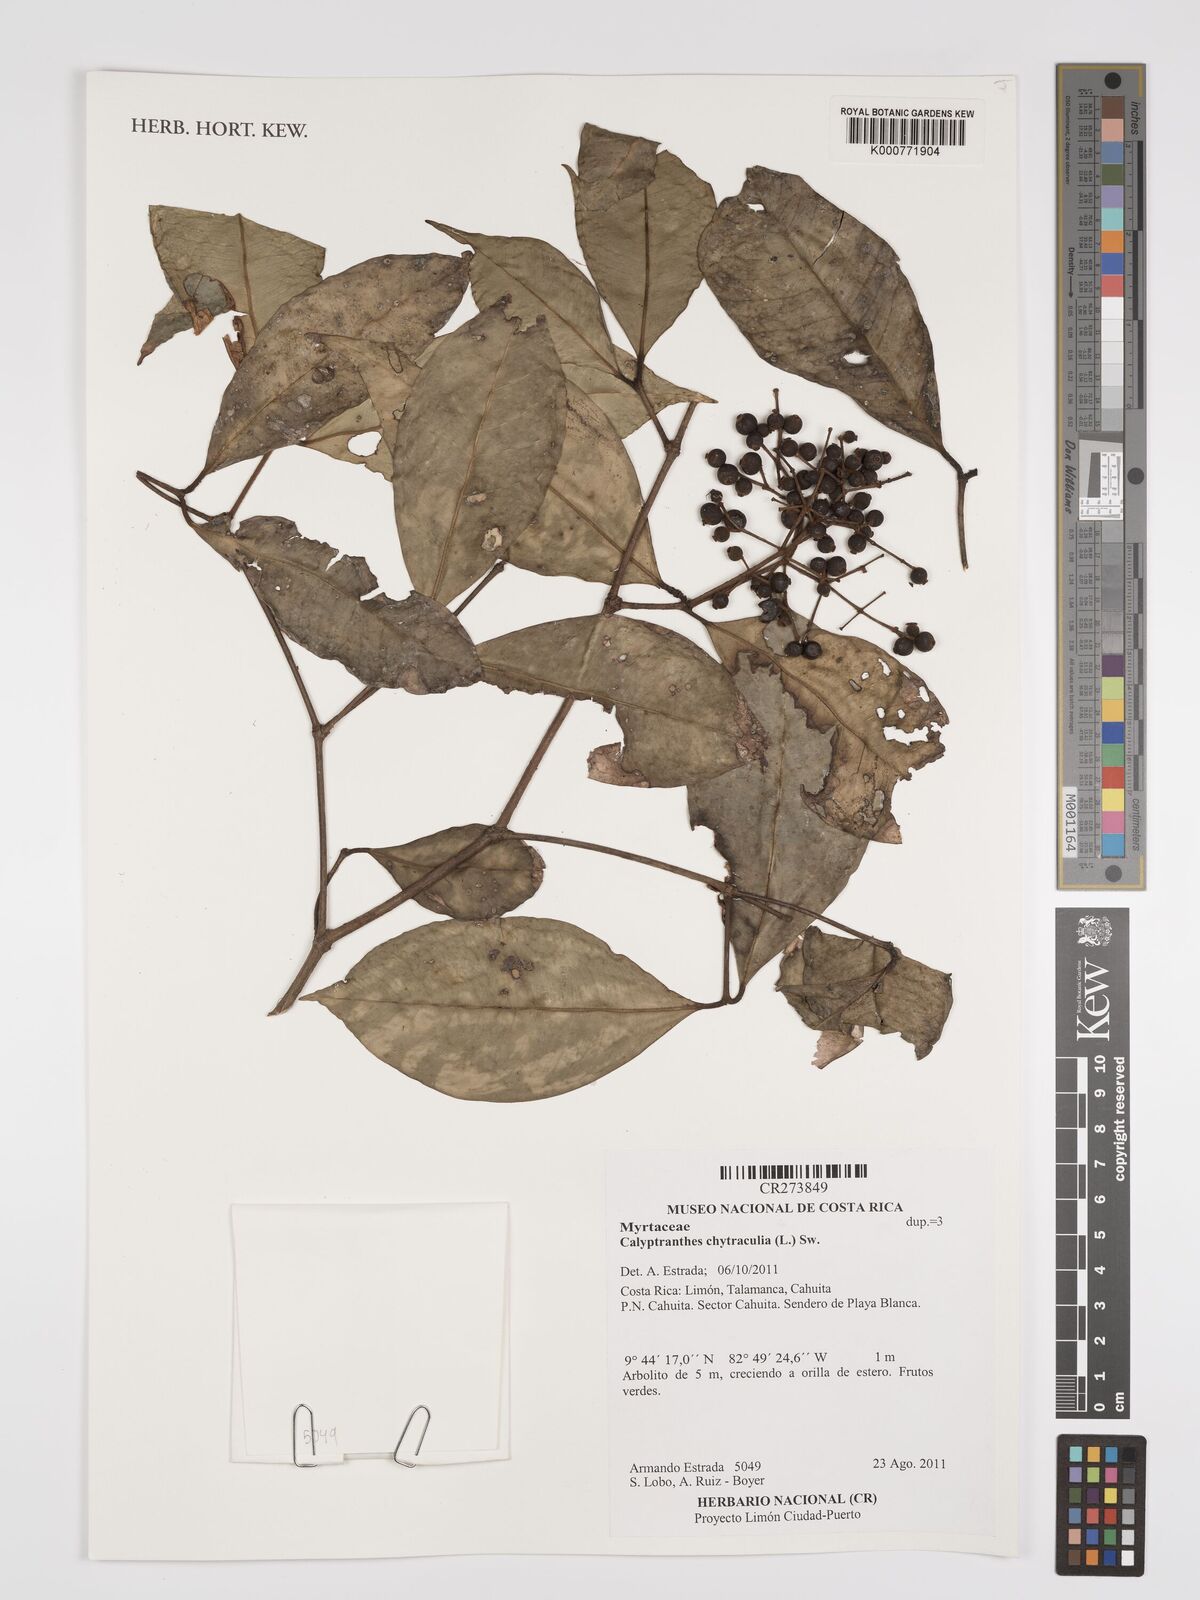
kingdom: Plantae
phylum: Tracheophyta
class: Magnoliopsida
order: Myrtales
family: Myrtaceae
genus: Myrcia
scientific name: Myrcia chytraculia
